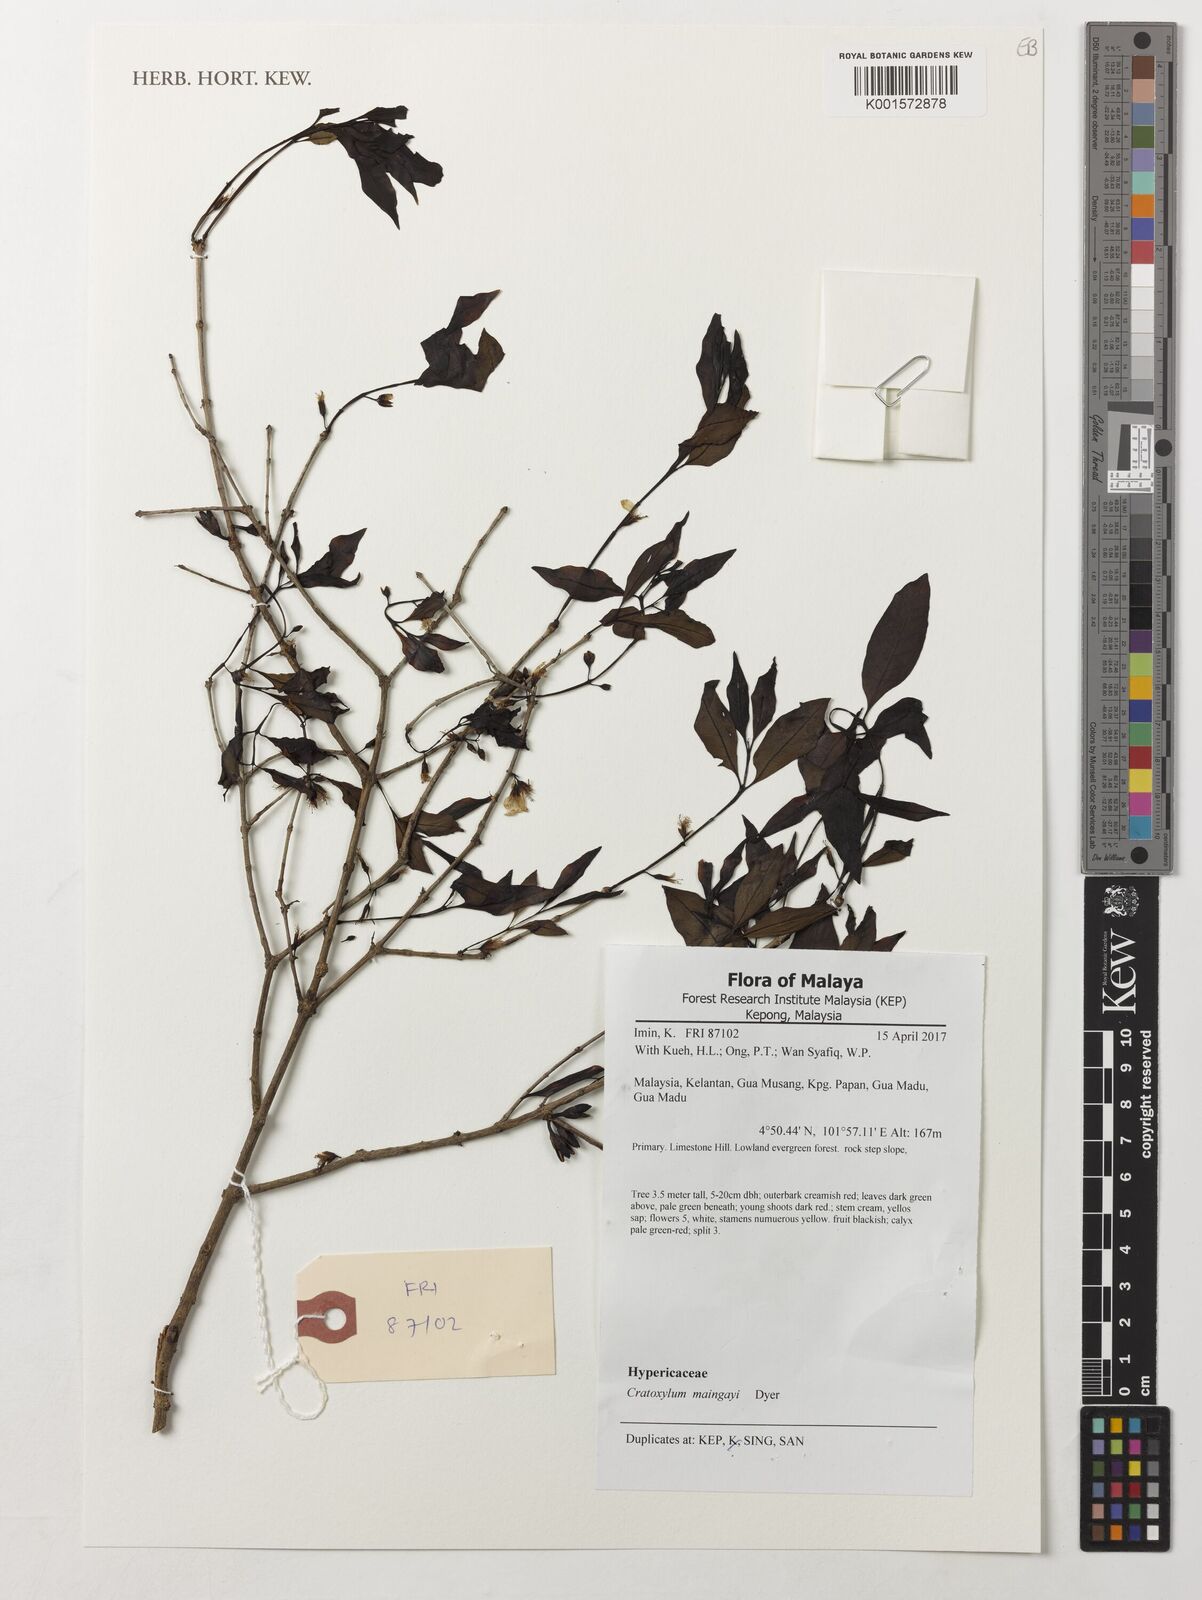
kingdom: Plantae
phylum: Tracheophyta
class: Magnoliopsida
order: Malpighiales
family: Hypericaceae
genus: Cratoxylum
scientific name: Cratoxylum maingayi
